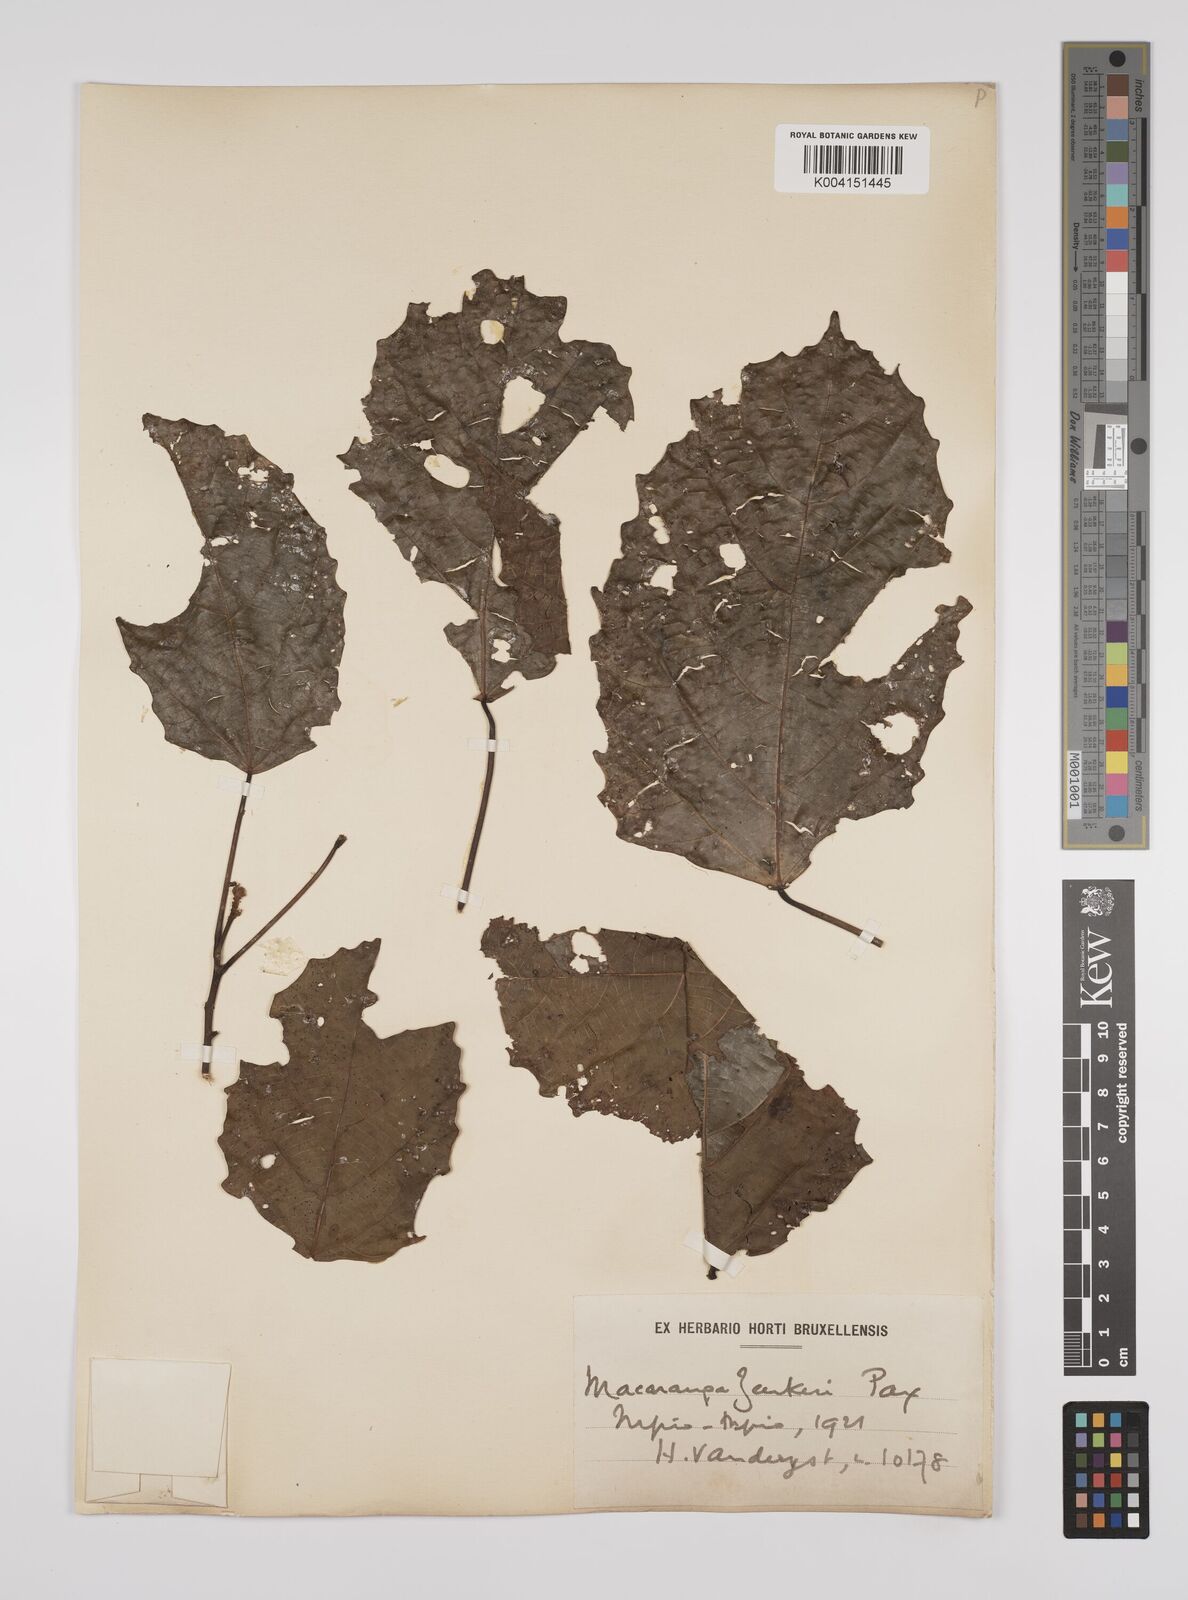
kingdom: Plantae
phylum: Tracheophyta
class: Magnoliopsida
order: Malpighiales
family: Euphorbiaceae
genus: Macaranga
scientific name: Macaranga monandra
